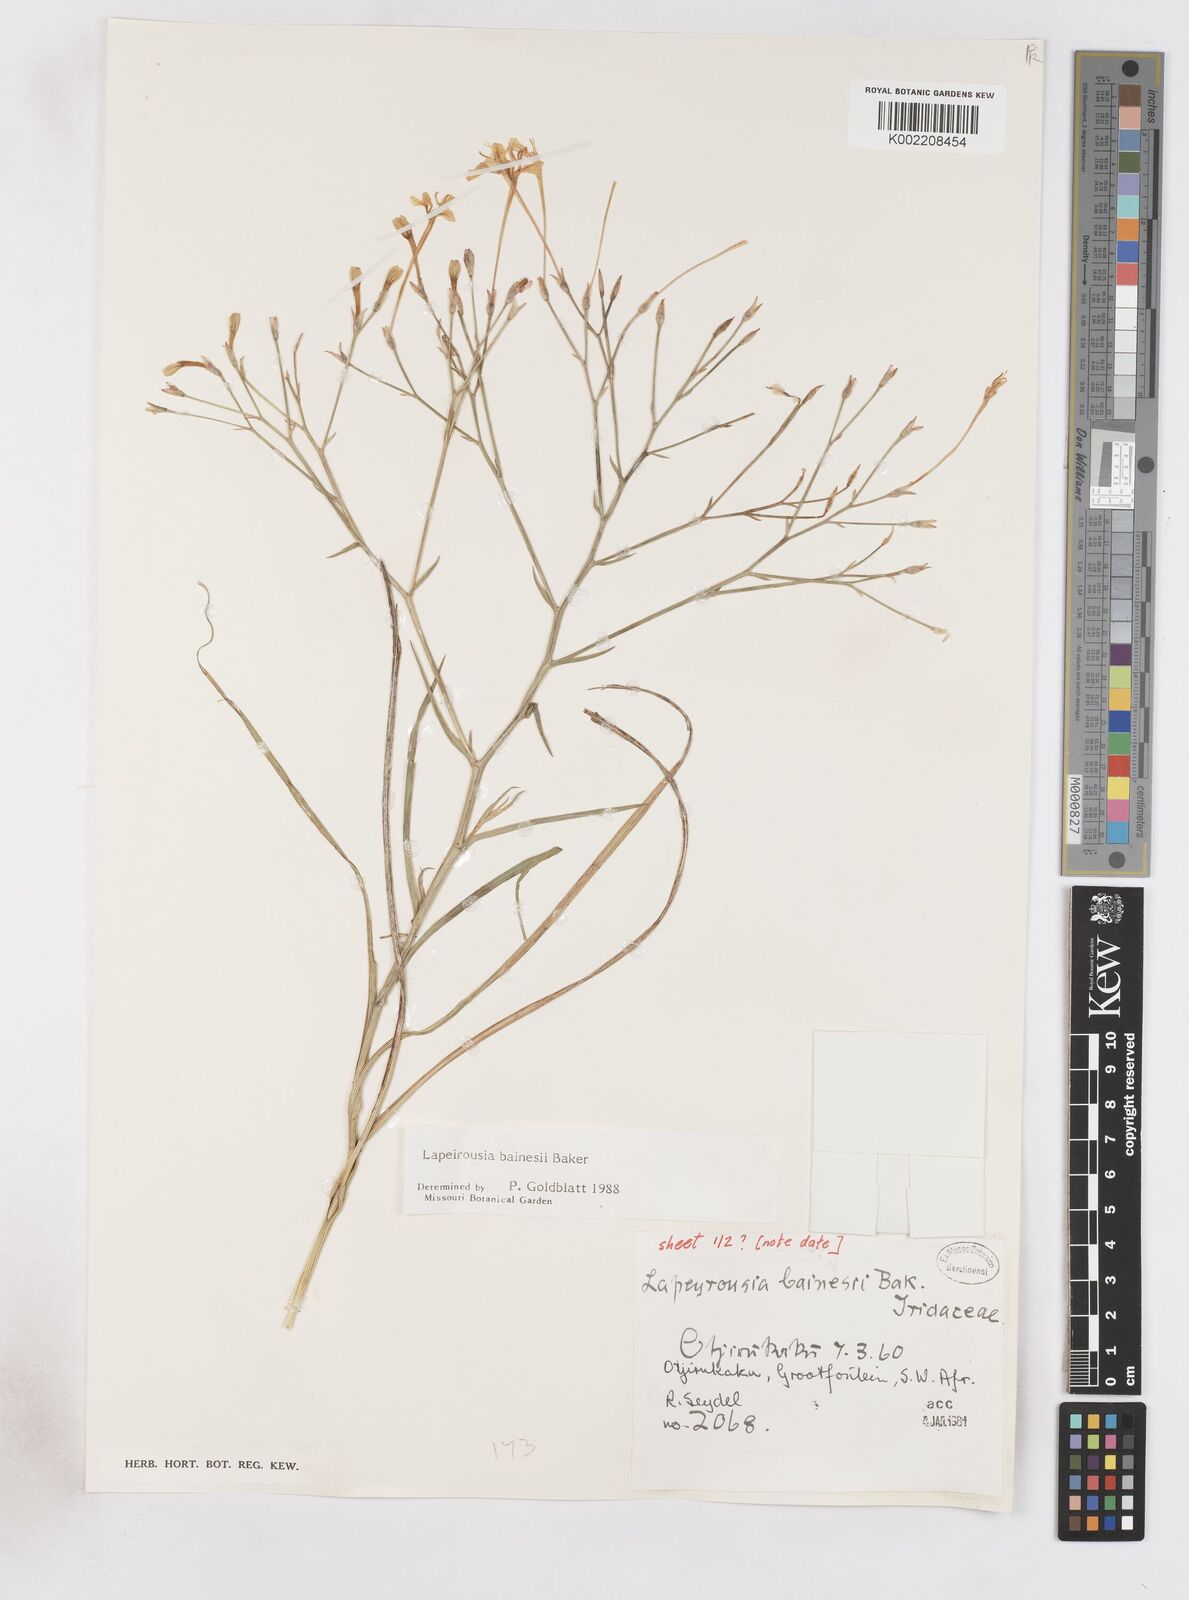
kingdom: Plantae
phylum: Tracheophyta
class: Liliopsida
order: Asparagales
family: Iridaceae
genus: Afrosolen
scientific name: Afrosolen erythranthus
